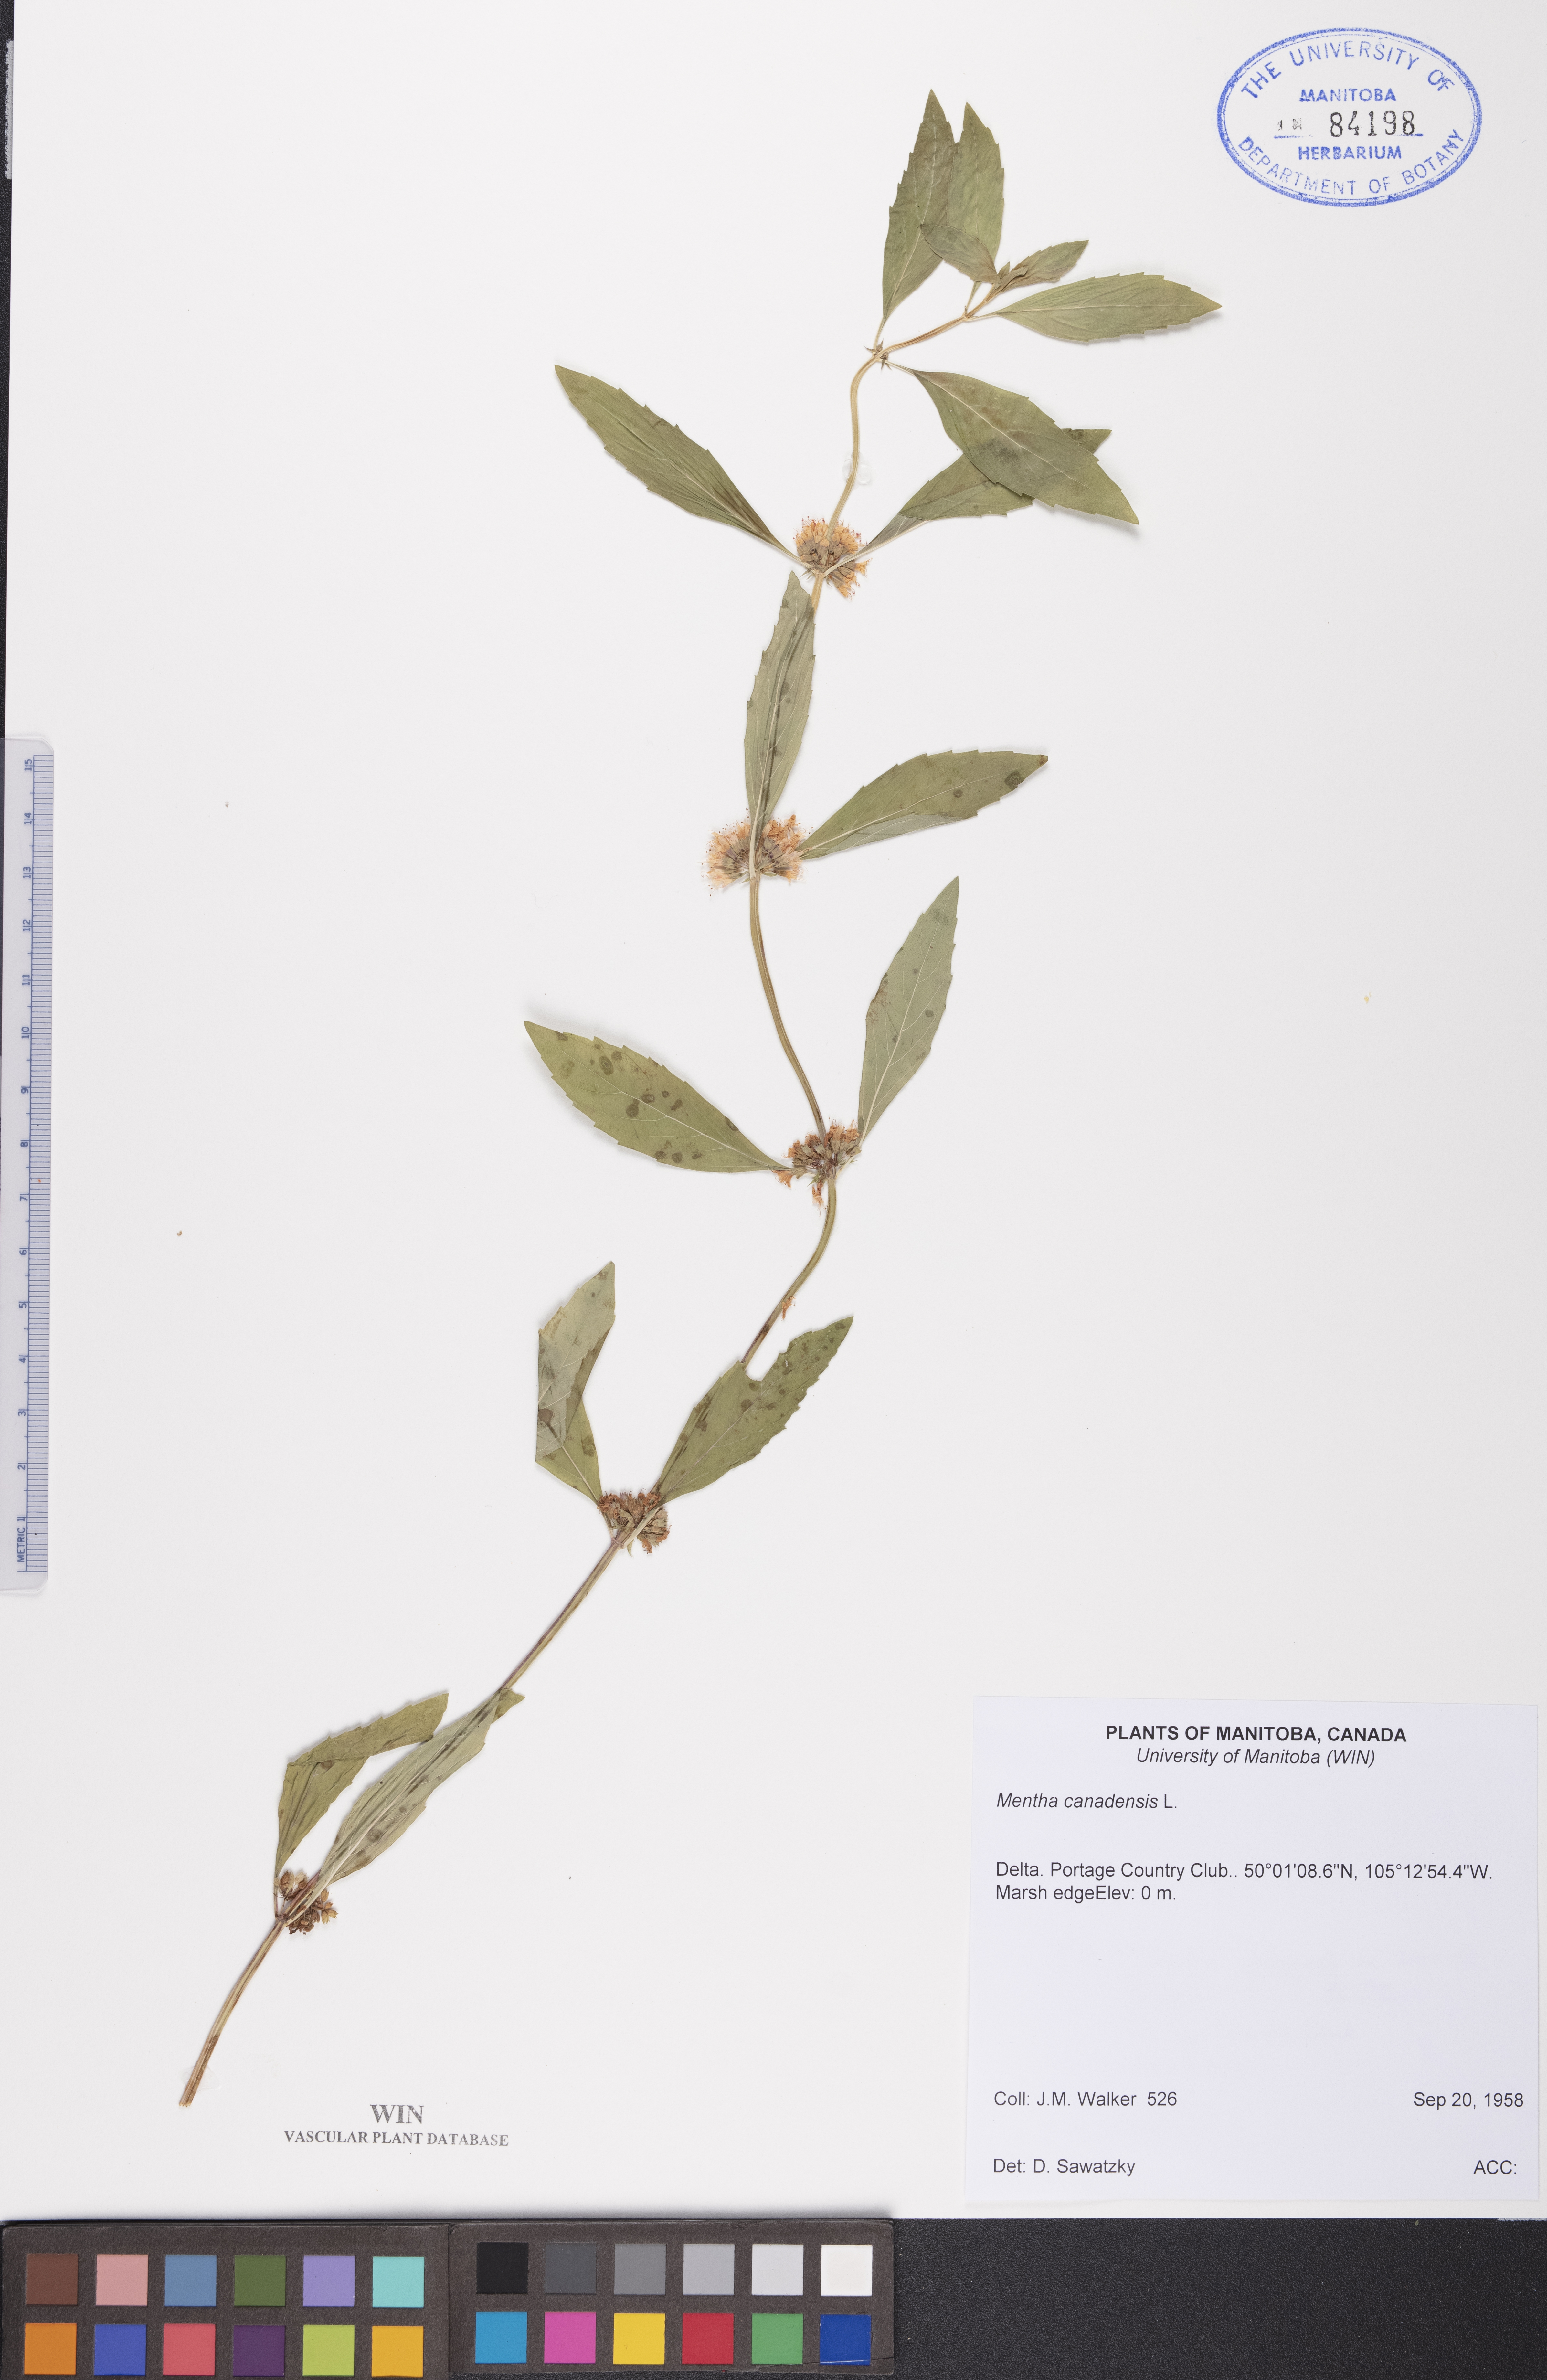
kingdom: Plantae
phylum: Tracheophyta
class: Magnoliopsida
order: Lamiales
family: Lamiaceae
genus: Mentha
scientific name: Mentha canadensis
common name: American corn mint
